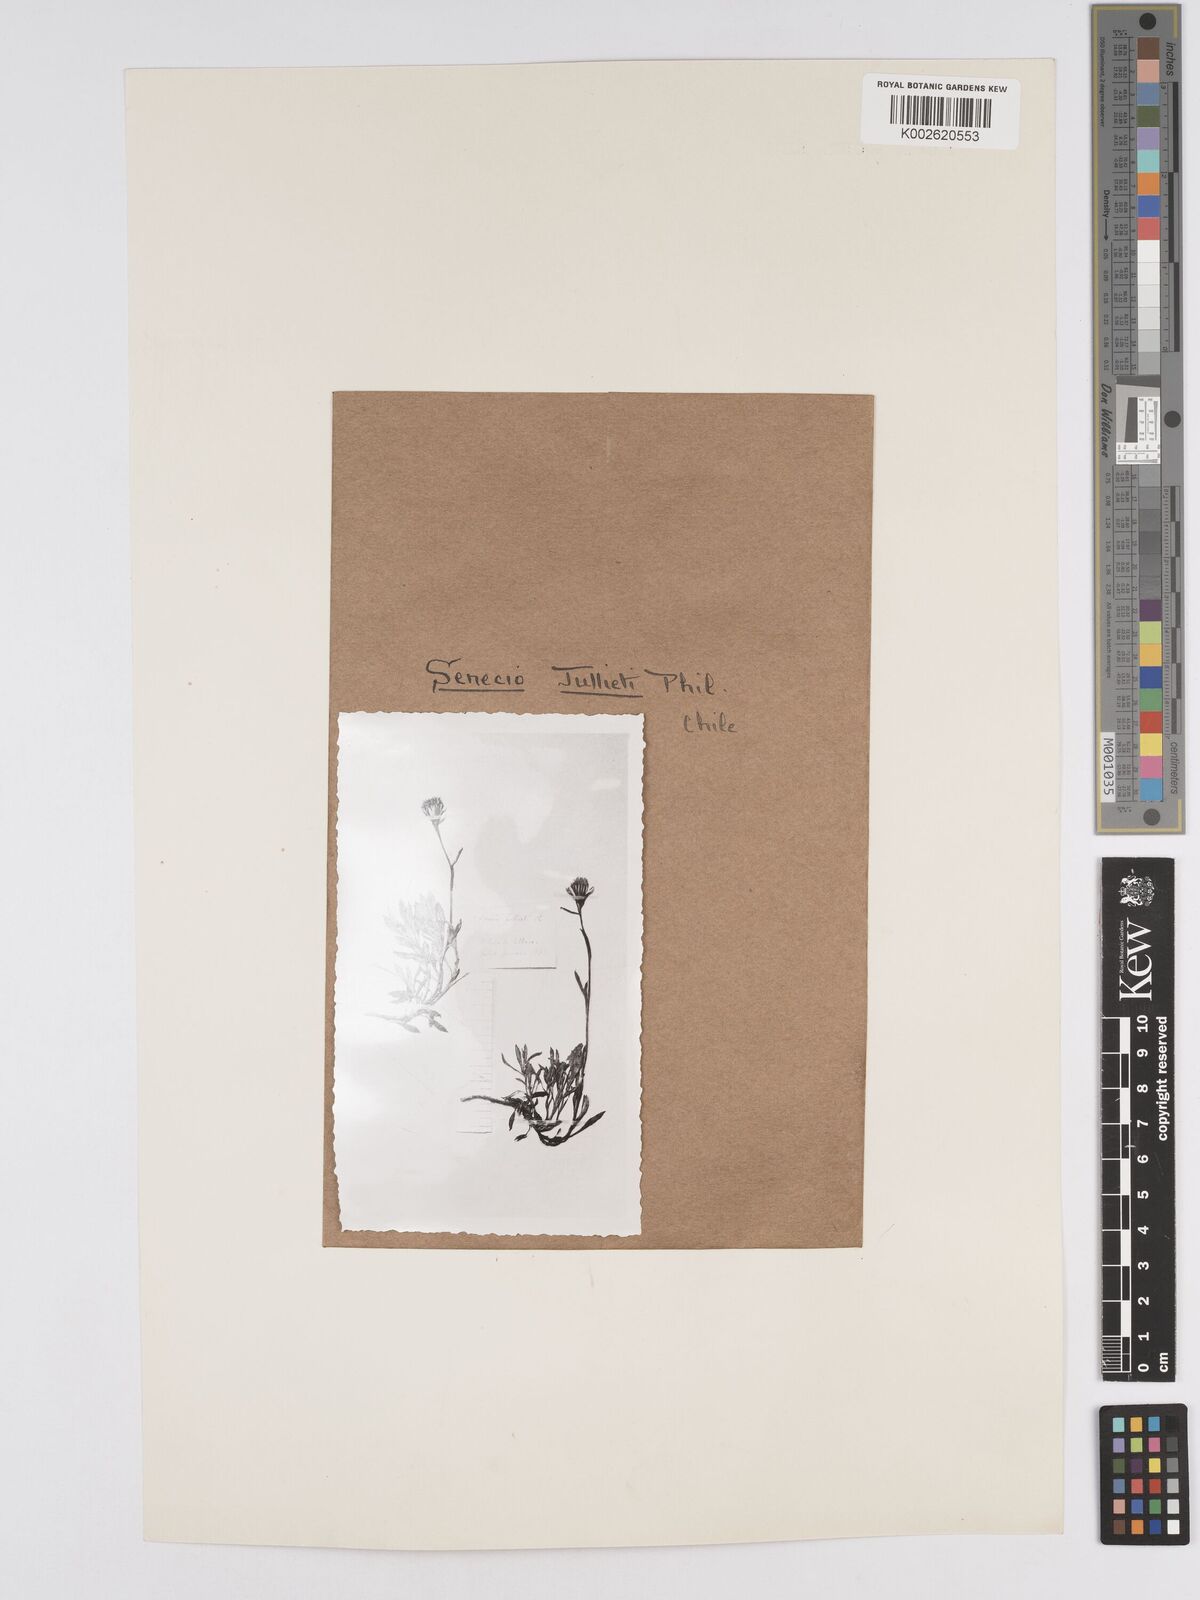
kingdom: Plantae
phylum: Tracheophyta
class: Magnoliopsida
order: Asterales
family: Asteraceae
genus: Senecio
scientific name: Senecio bipontinii
